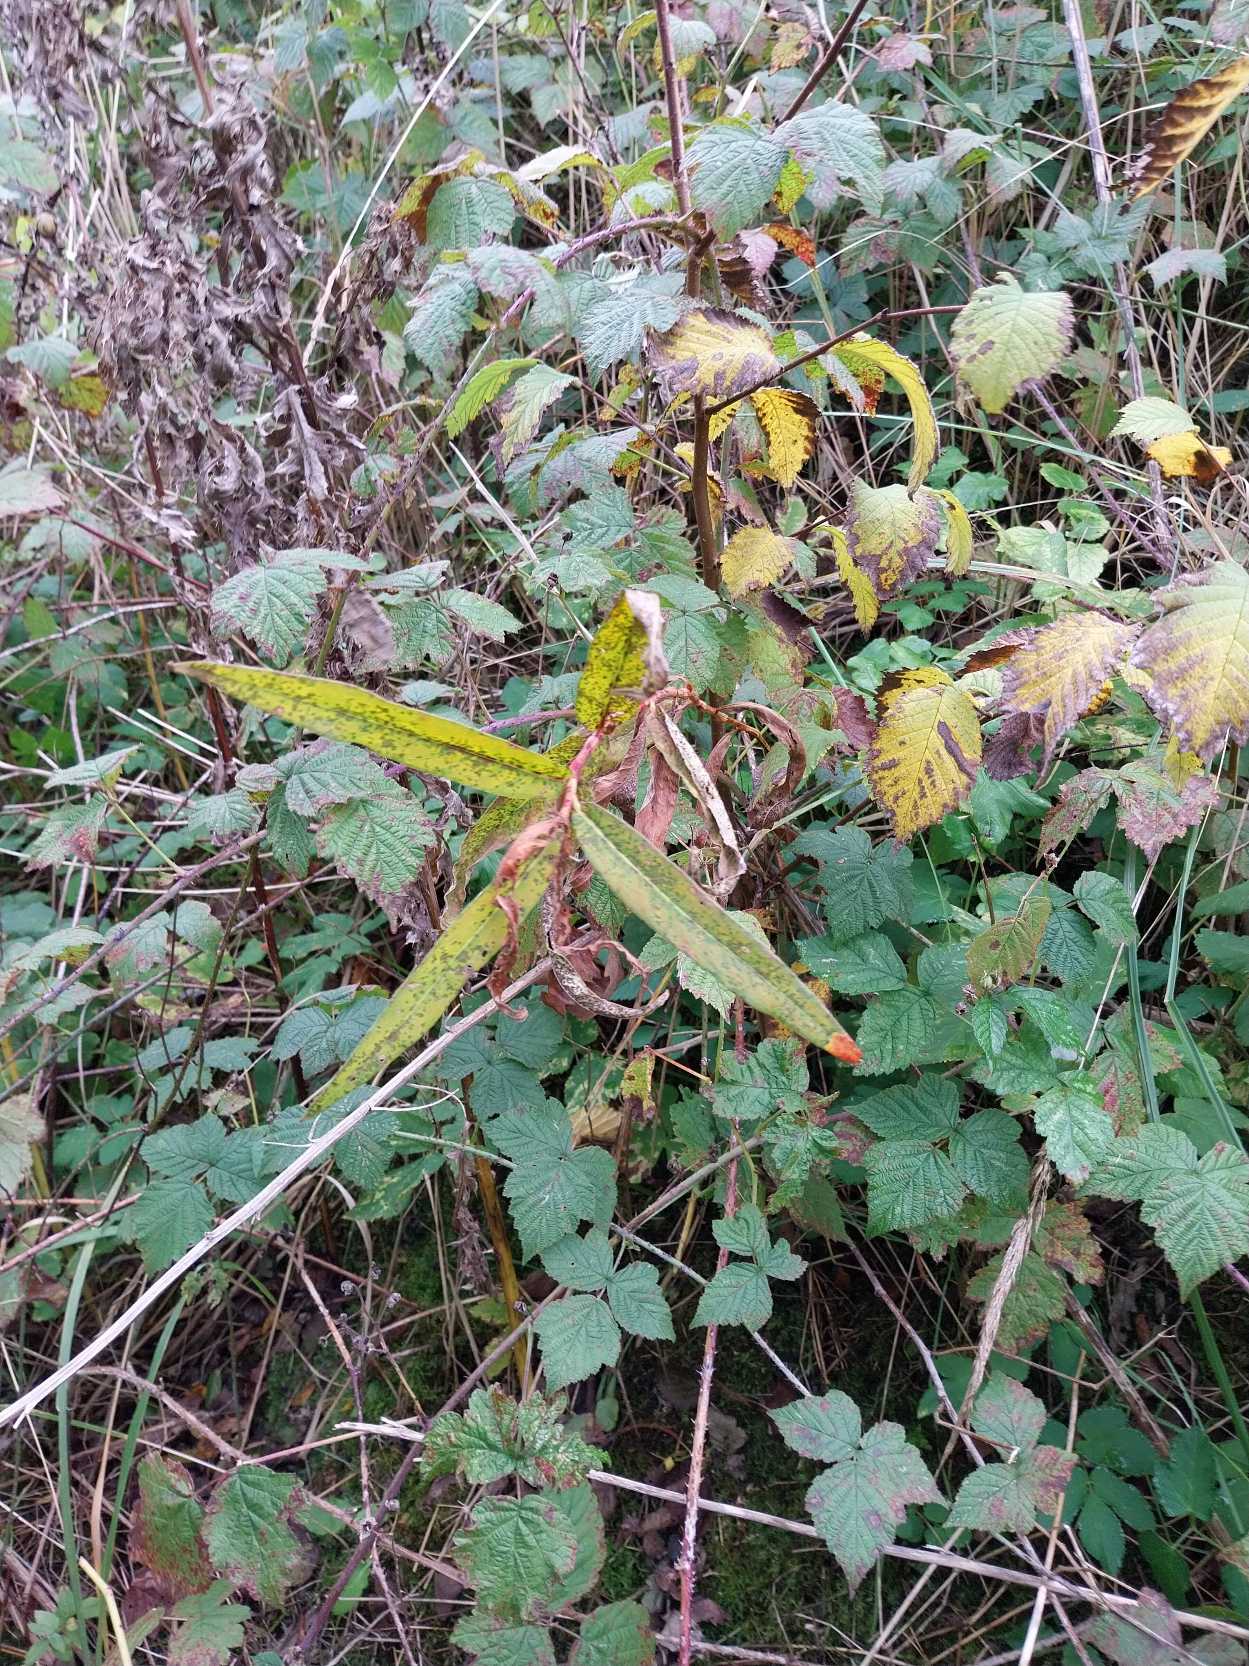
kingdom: Plantae
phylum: Tracheophyta
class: Magnoliopsida
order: Caryophyllales
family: Polygonaceae
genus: Persicaria
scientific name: Persicaria amphibia
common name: Vand-pileurt
